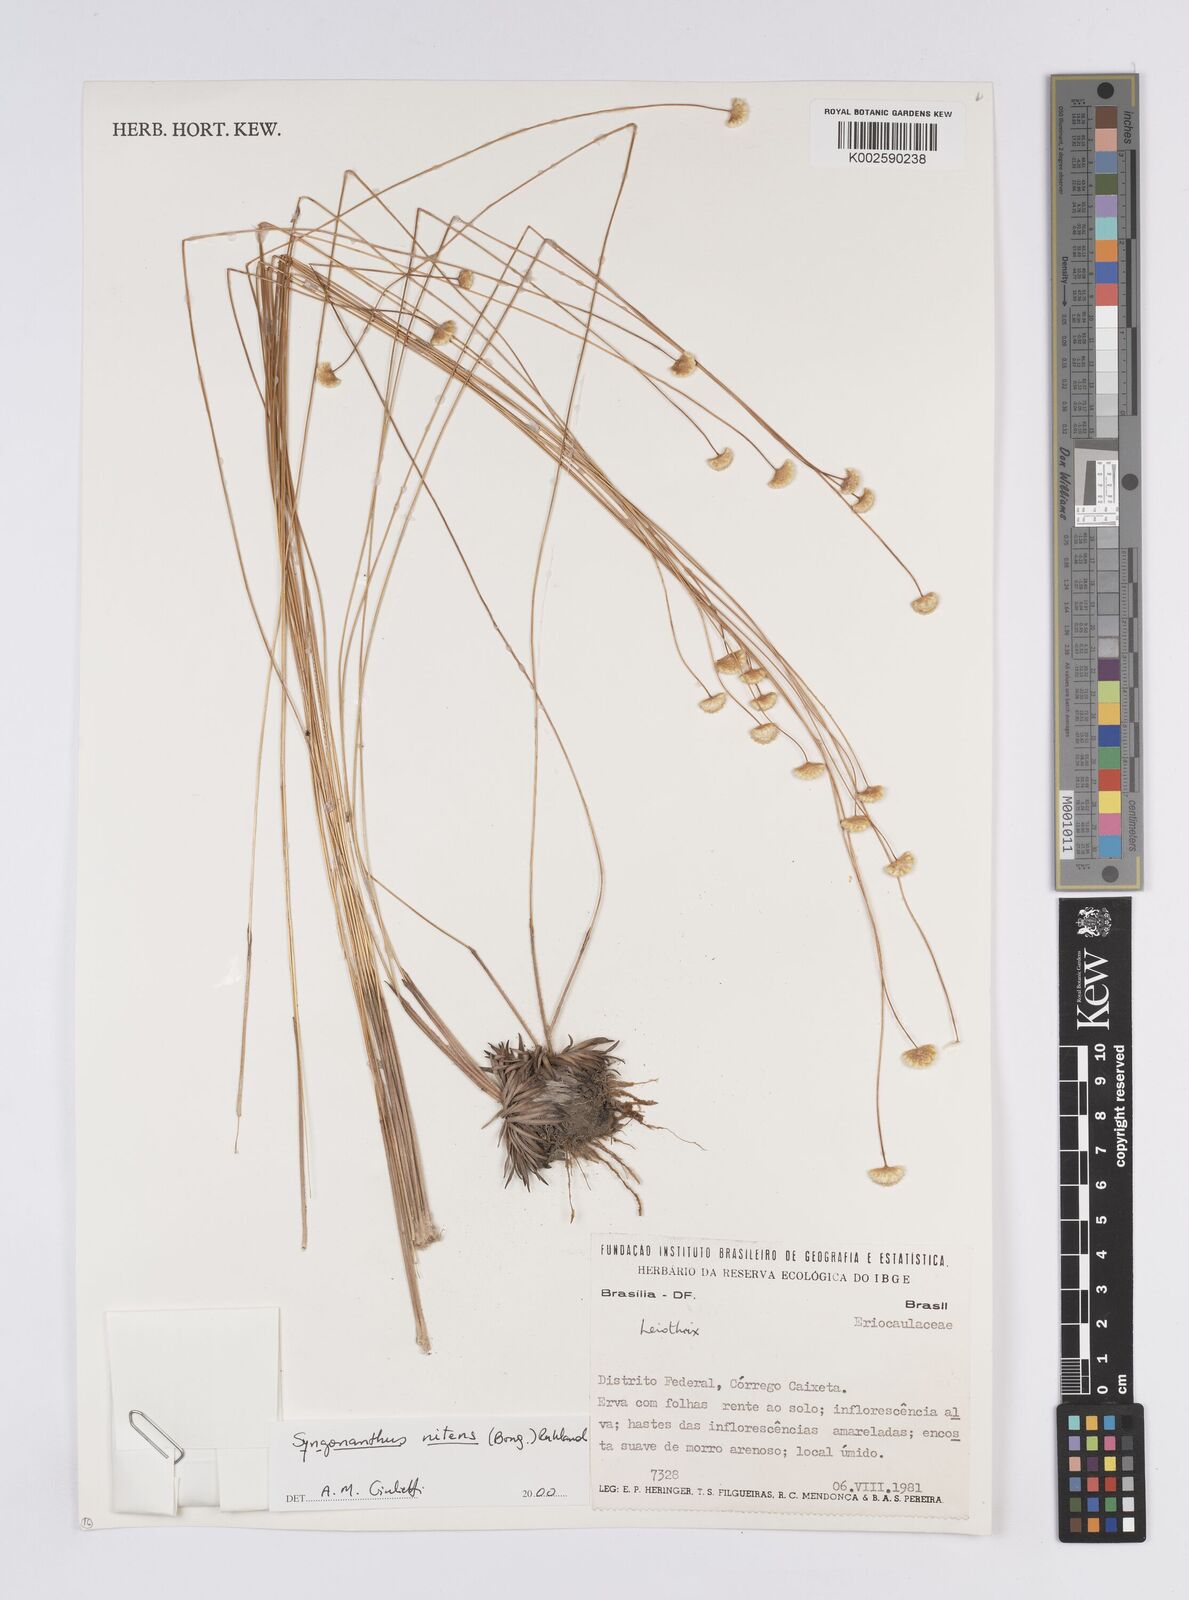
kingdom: Plantae
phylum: Tracheophyta
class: Liliopsida
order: Poales
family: Eriocaulaceae
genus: Syngonanthus
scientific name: Syngonanthus nitens
